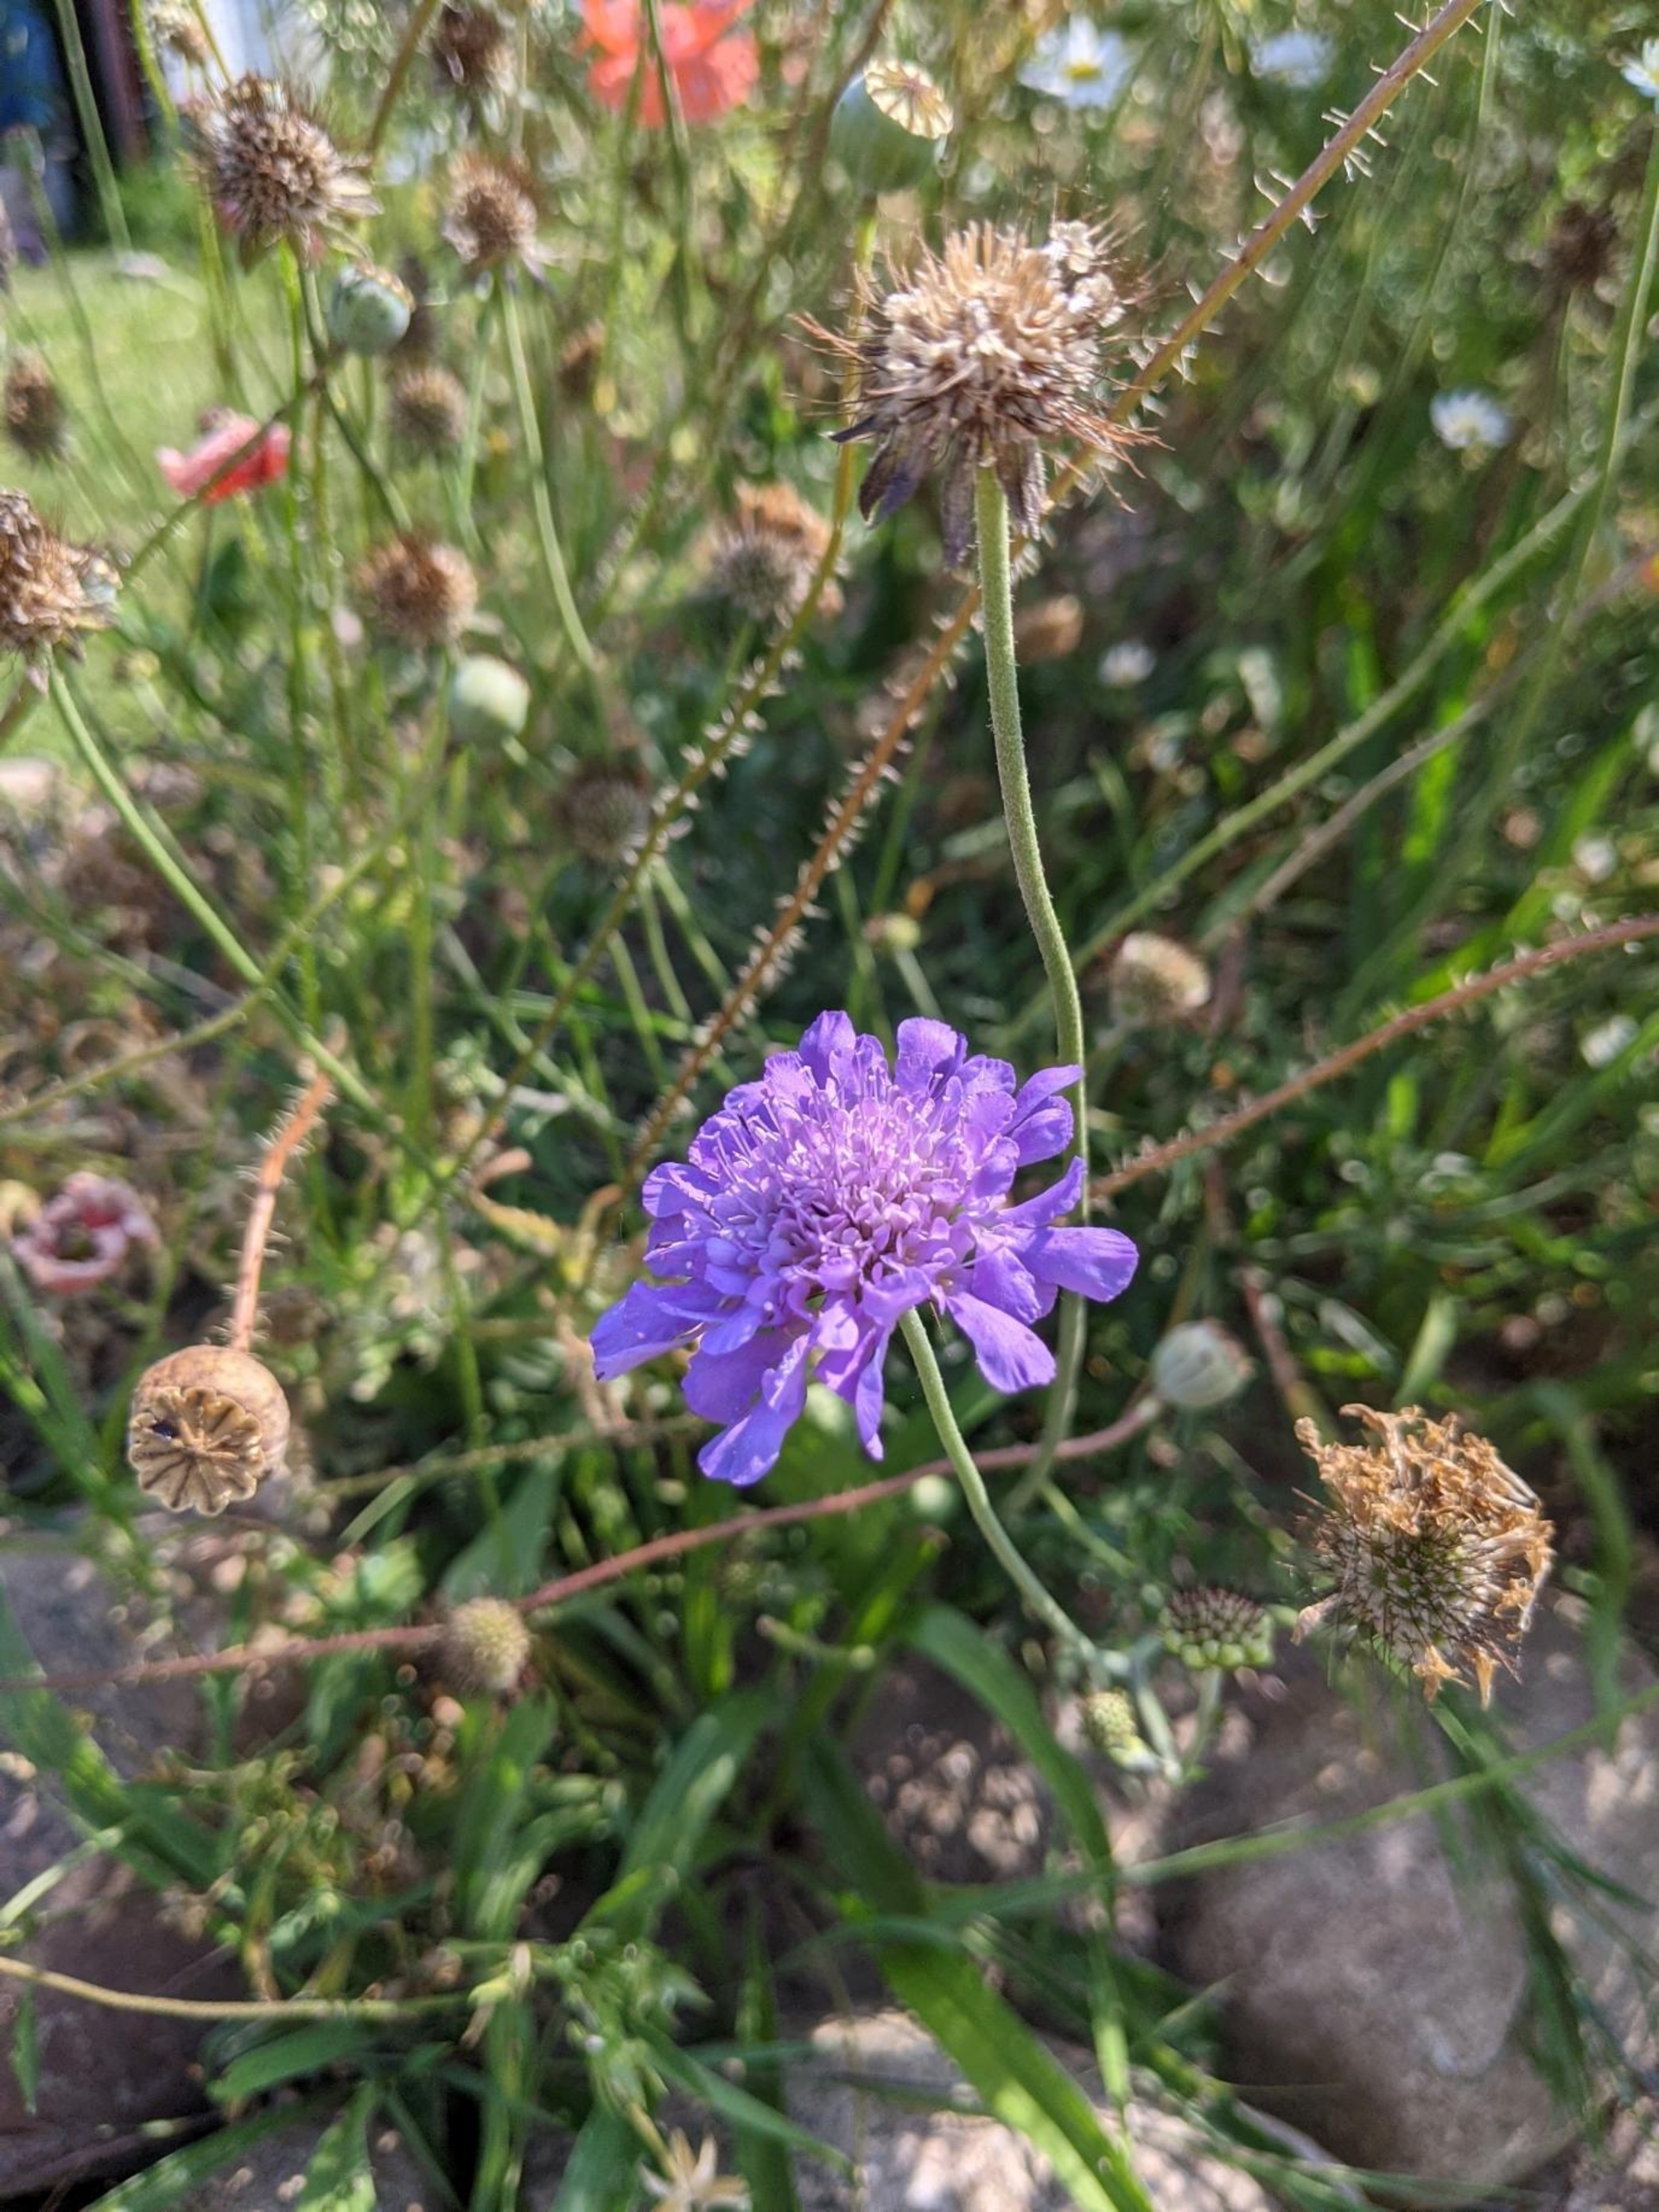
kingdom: Plantae
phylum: Tracheophyta
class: Magnoliopsida
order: Dipsacales
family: Caprifoliaceae
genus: Scabiosa
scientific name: Scabiosa columbaria
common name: Due-skabiose
